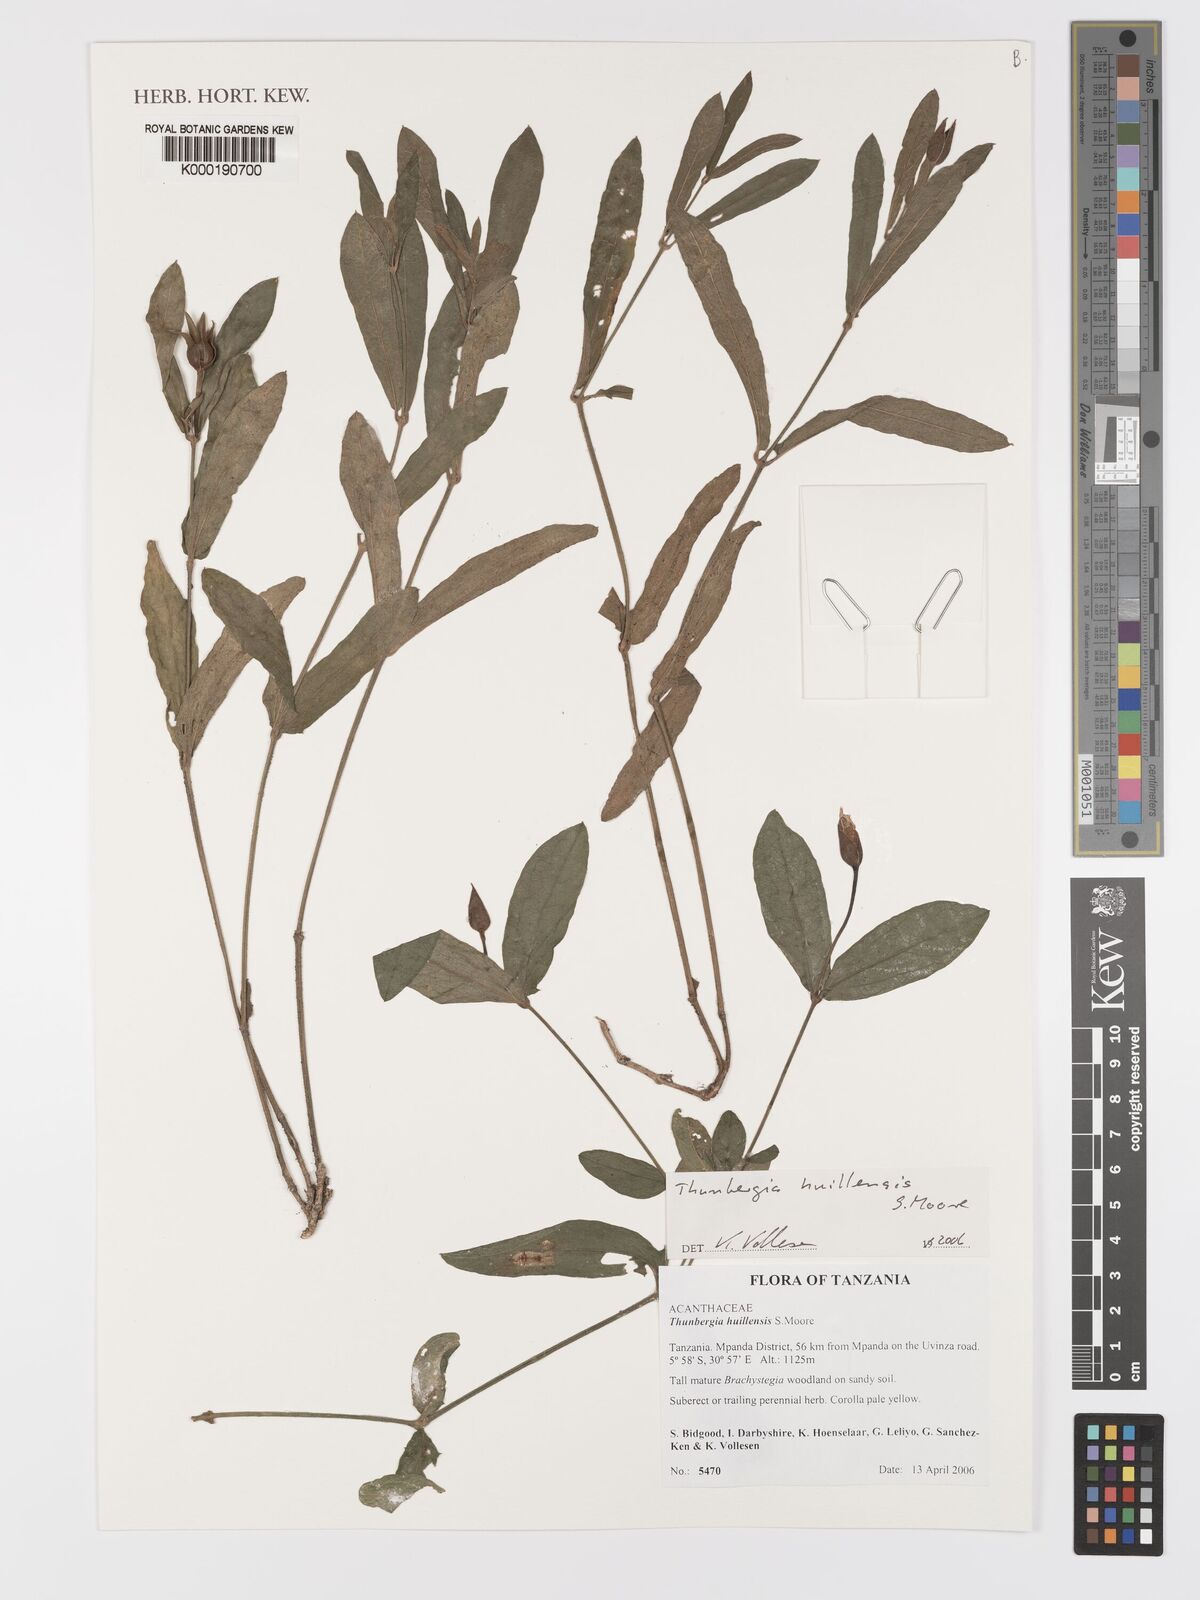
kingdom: Plantae
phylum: Tracheophyta
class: Magnoliopsida
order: Lamiales
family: Acanthaceae
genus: Thunbergia
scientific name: Thunbergia huillensis
